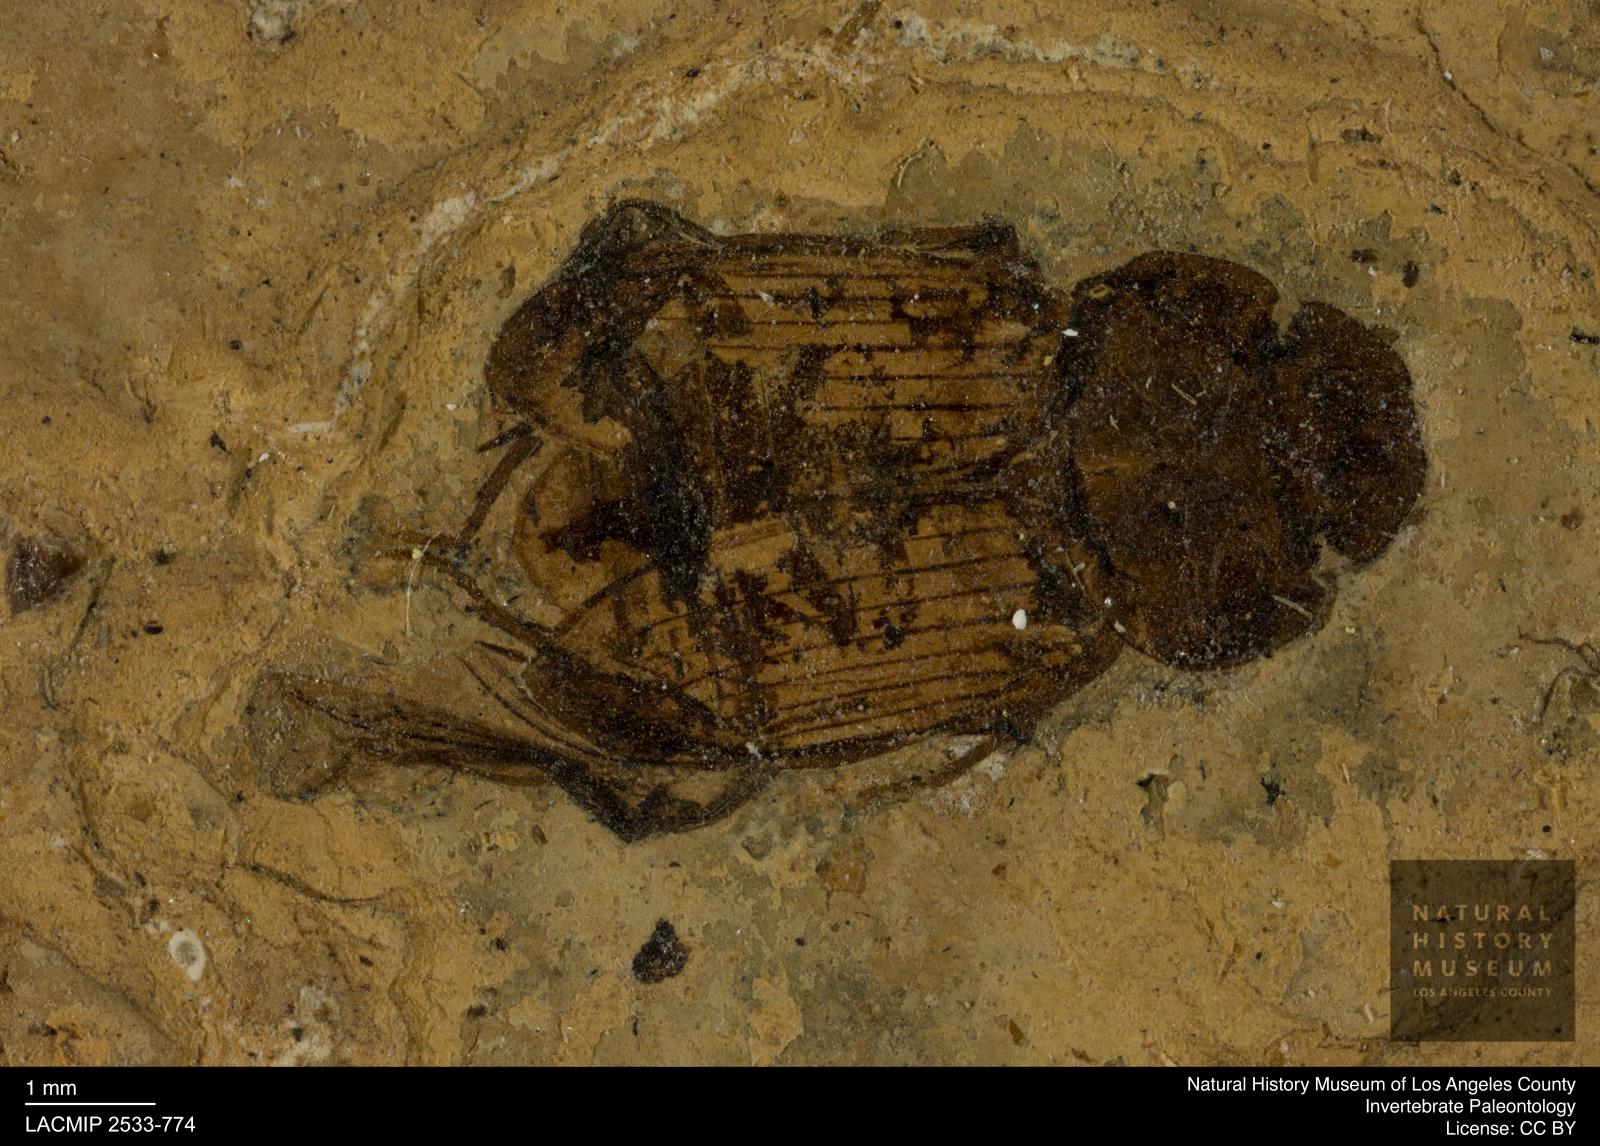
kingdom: Animalia
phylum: Arthropoda
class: Insecta
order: Coleoptera
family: Scarabaeidae
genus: Aphodius
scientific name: Aphodius helvolus
